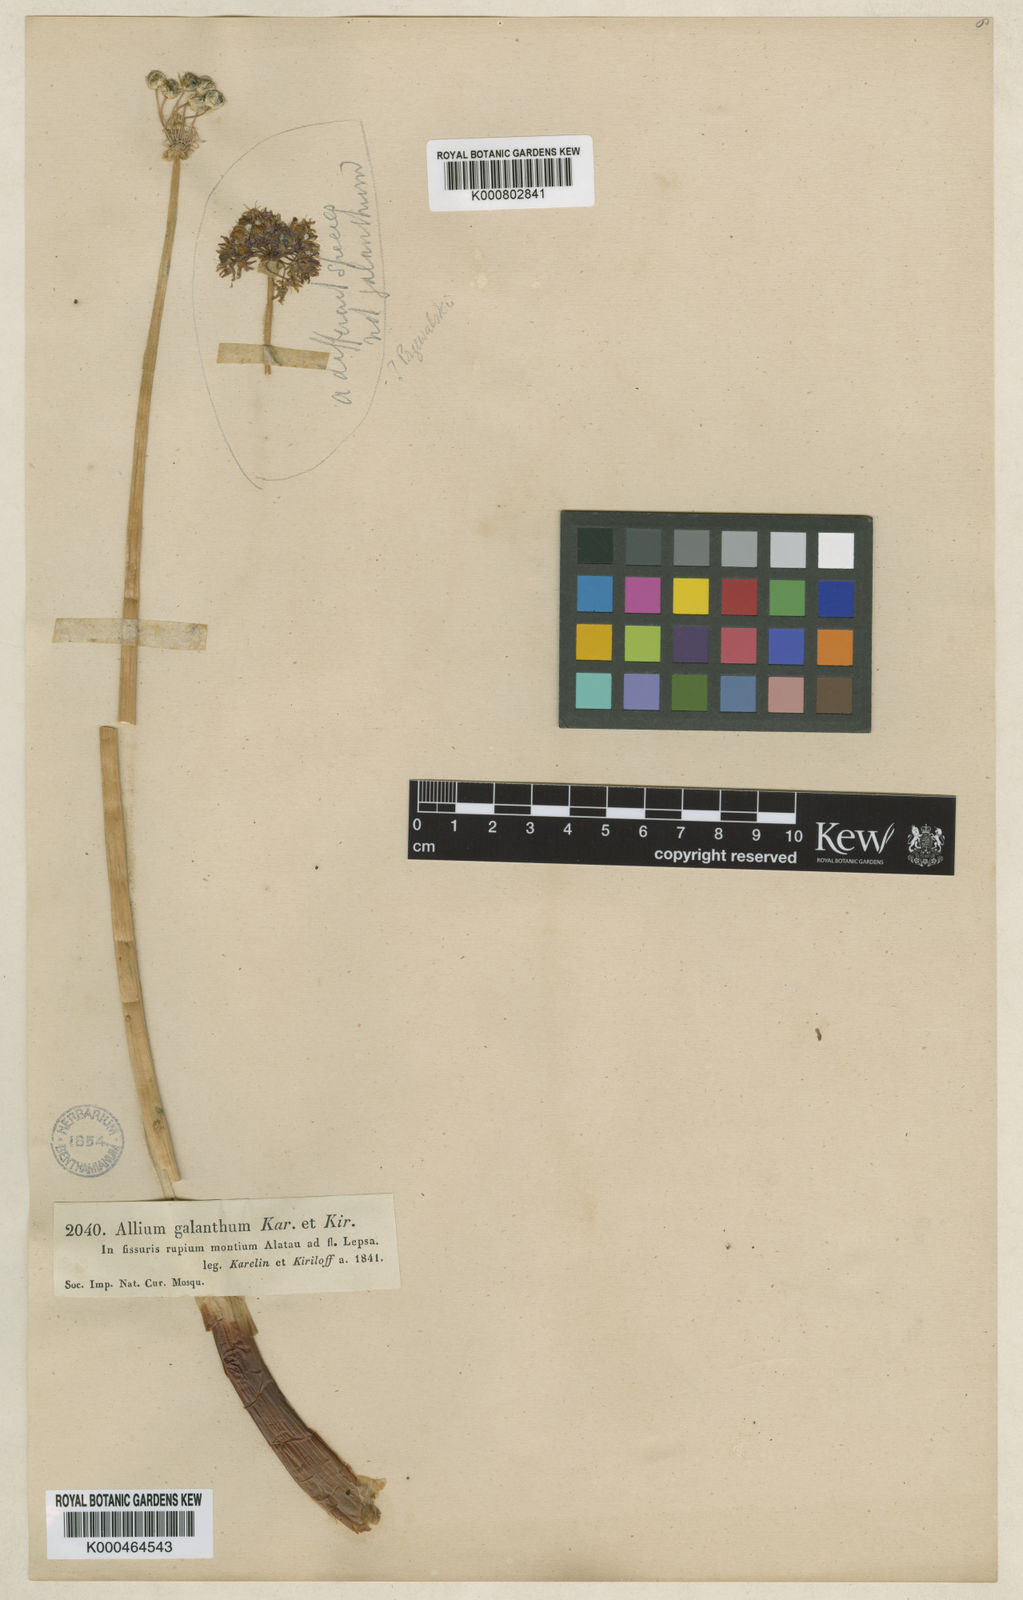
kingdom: Plantae
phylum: Tracheophyta
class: Liliopsida
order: Asparagales
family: Amaryllidaceae
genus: Allium
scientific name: Allium galanthum
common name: Snowdrop onion
